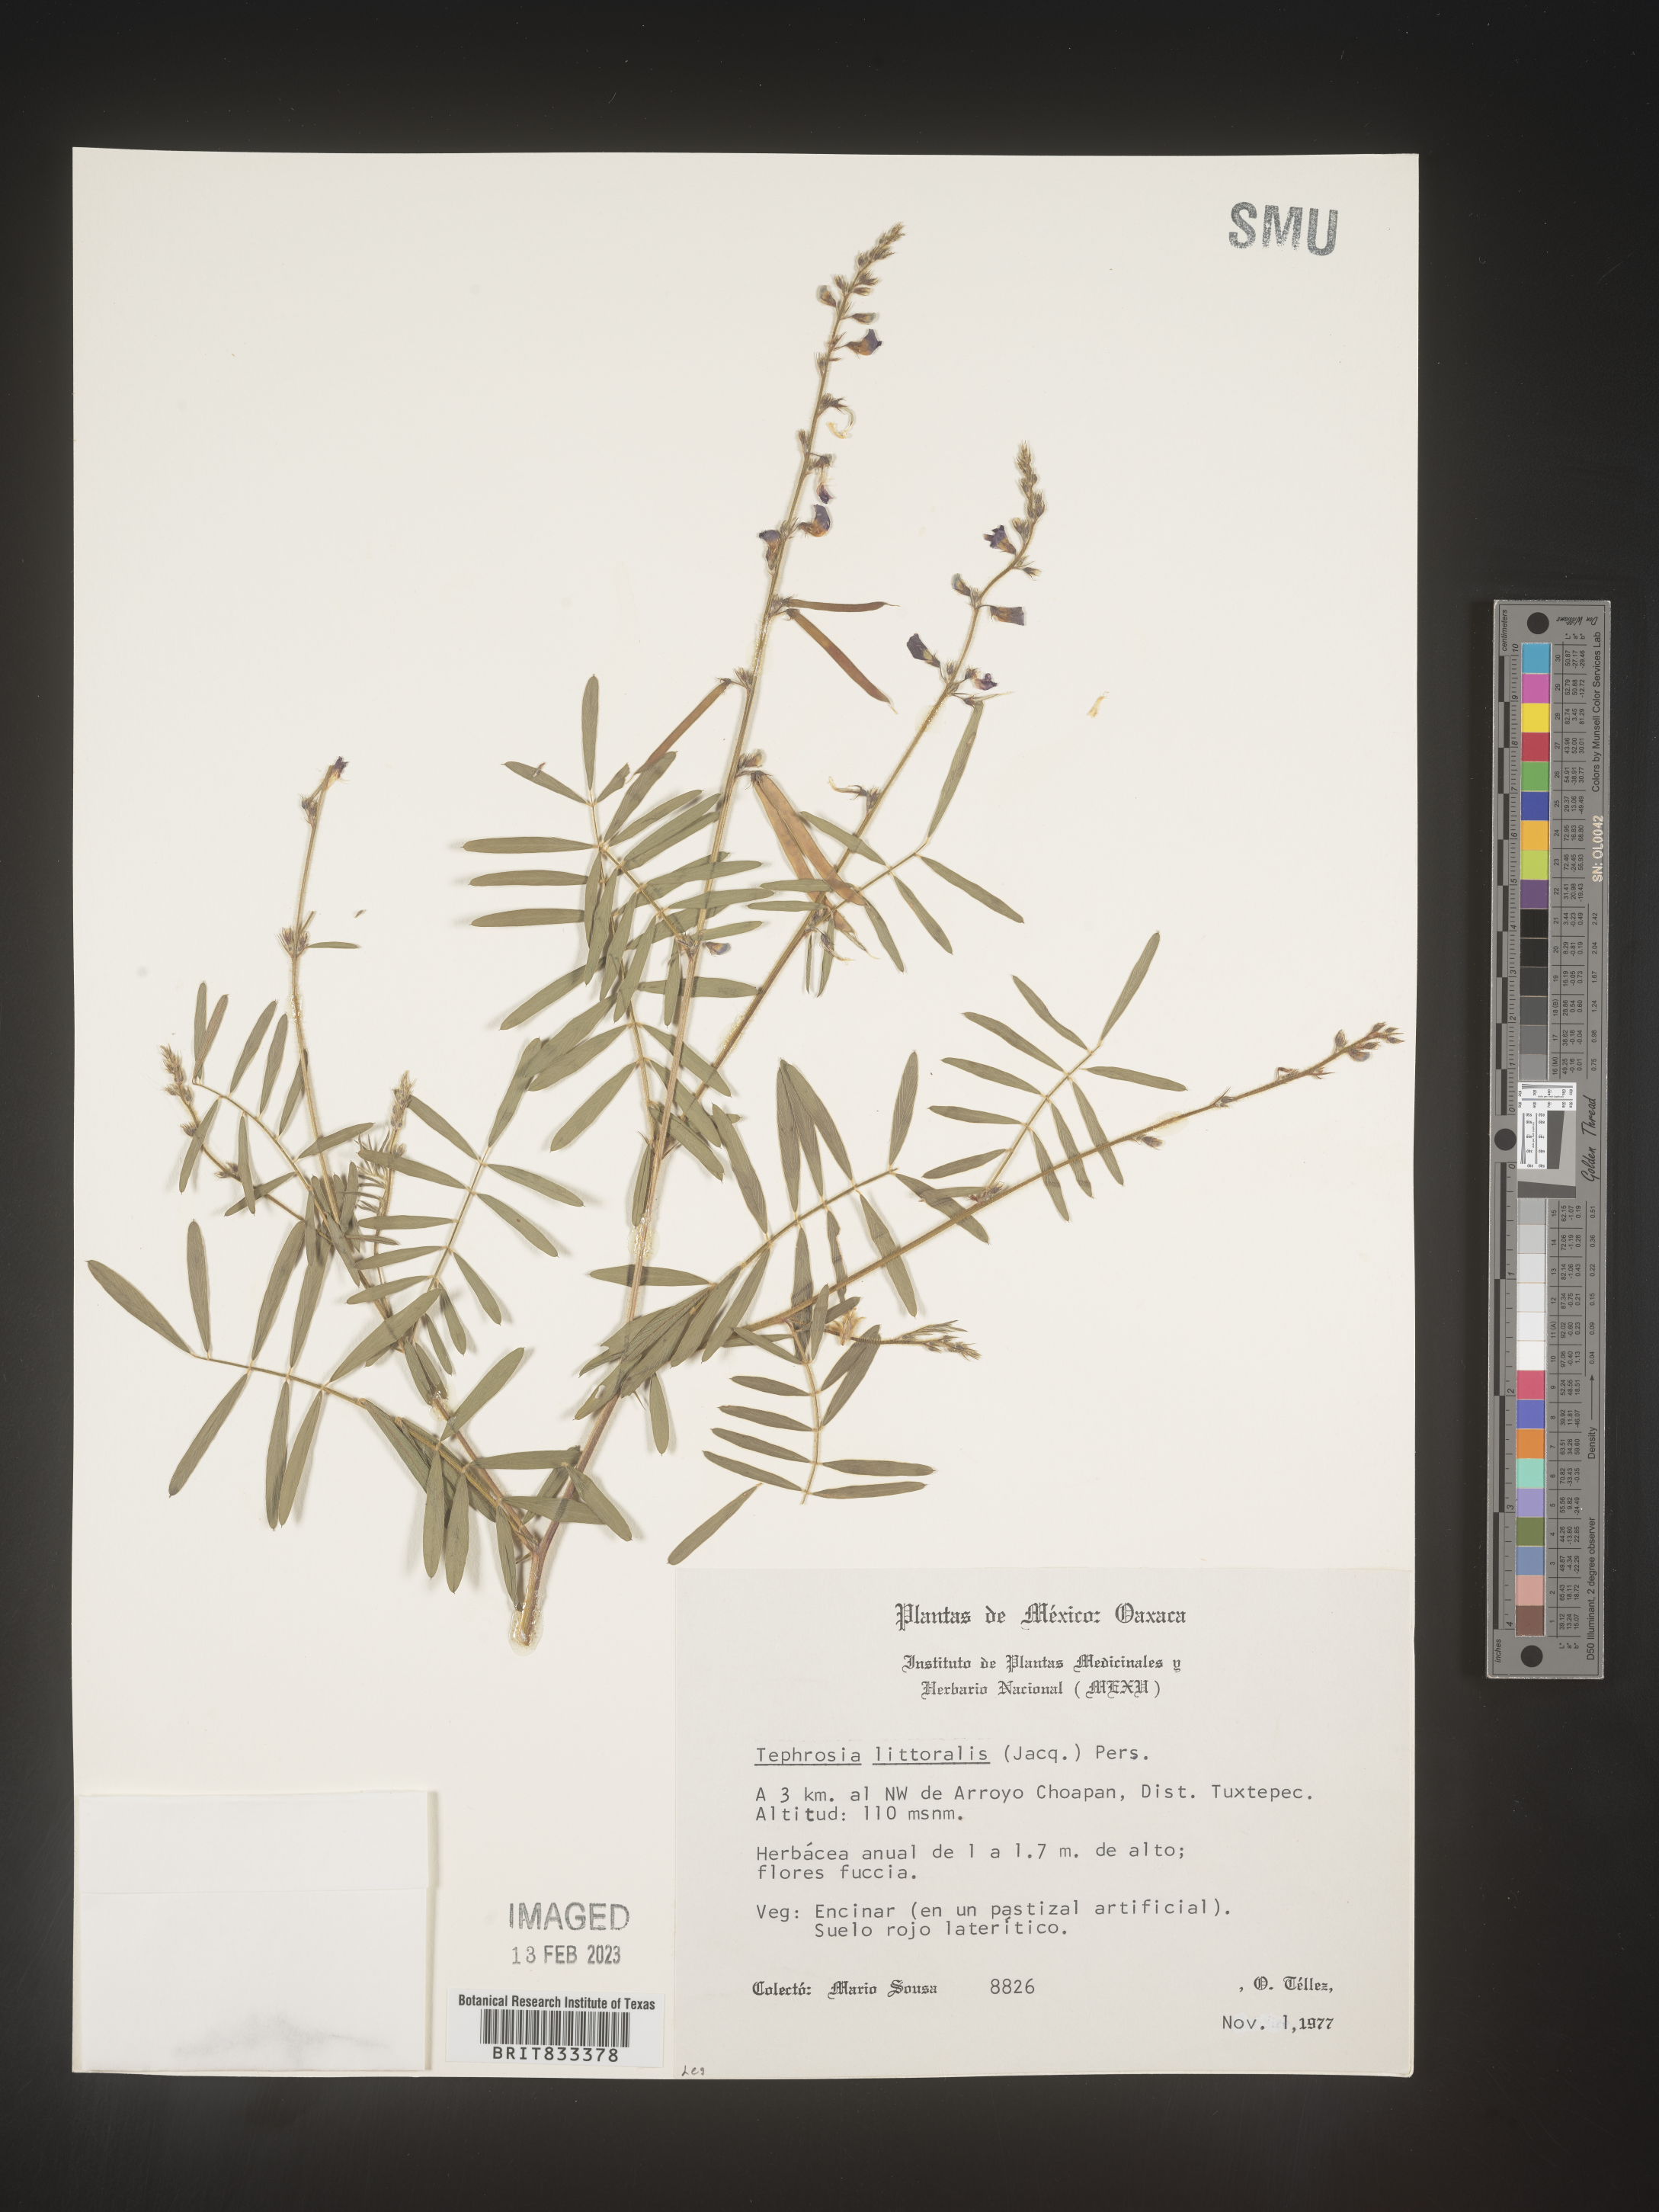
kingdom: Plantae
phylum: Tracheophyta
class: Magnoliopsida
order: Fabales
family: Fabaceae
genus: Tephrosia
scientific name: Tephrosia
